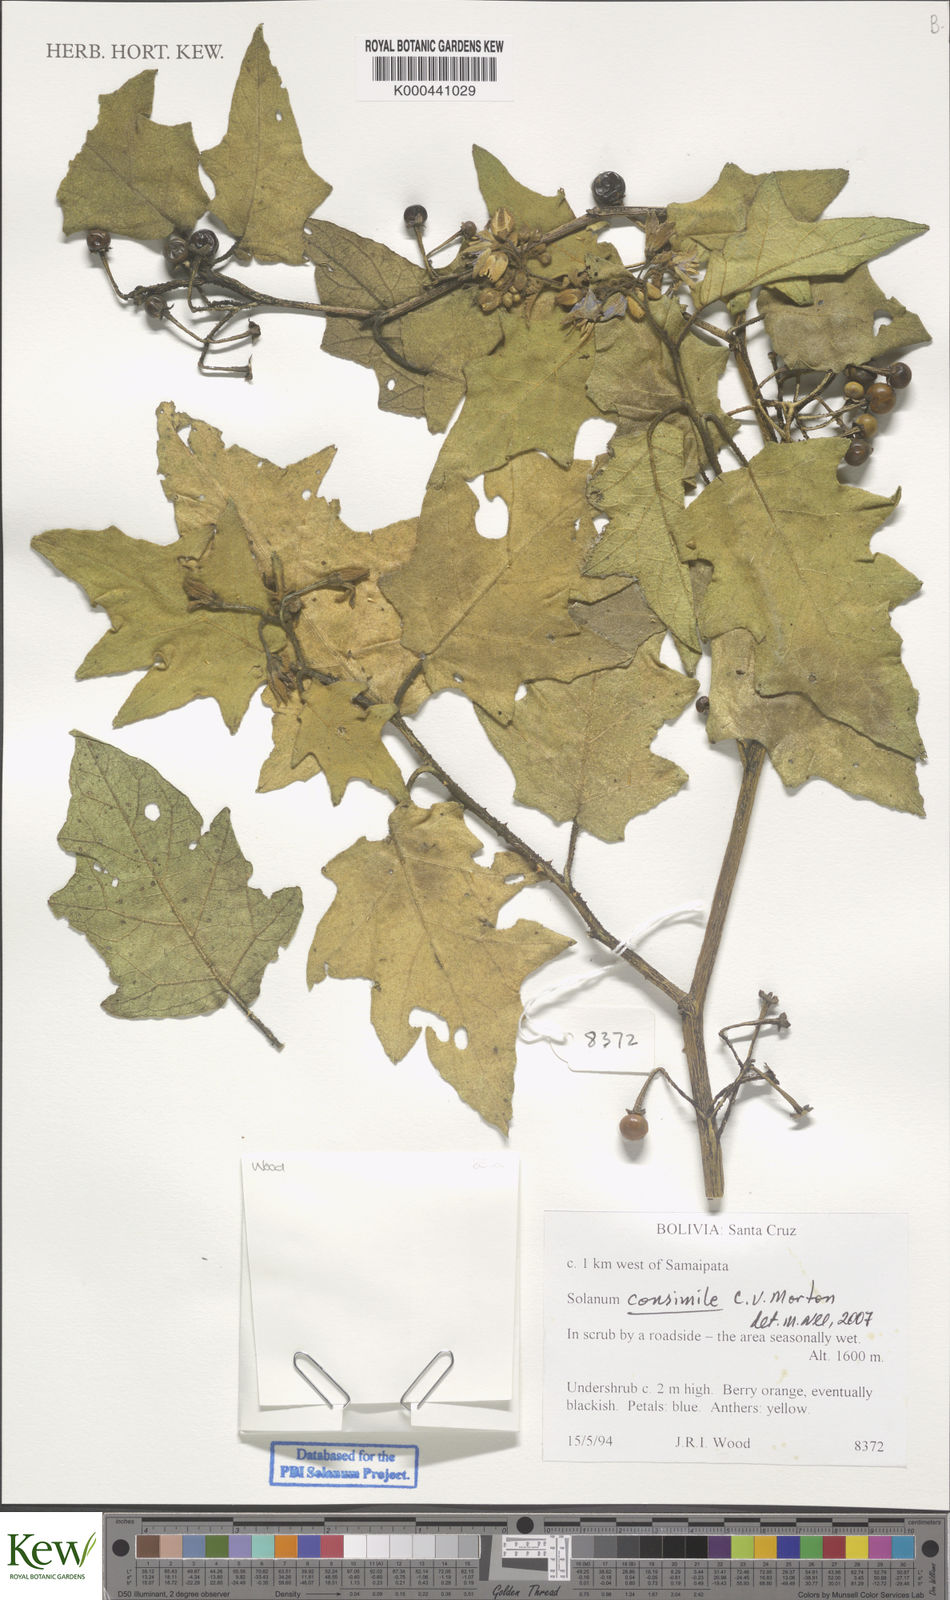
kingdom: Plantae
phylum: Tracheophyta
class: Magnoliopsida
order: Solanales
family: Solanaceae
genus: Solanum
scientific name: Solanum consimile
